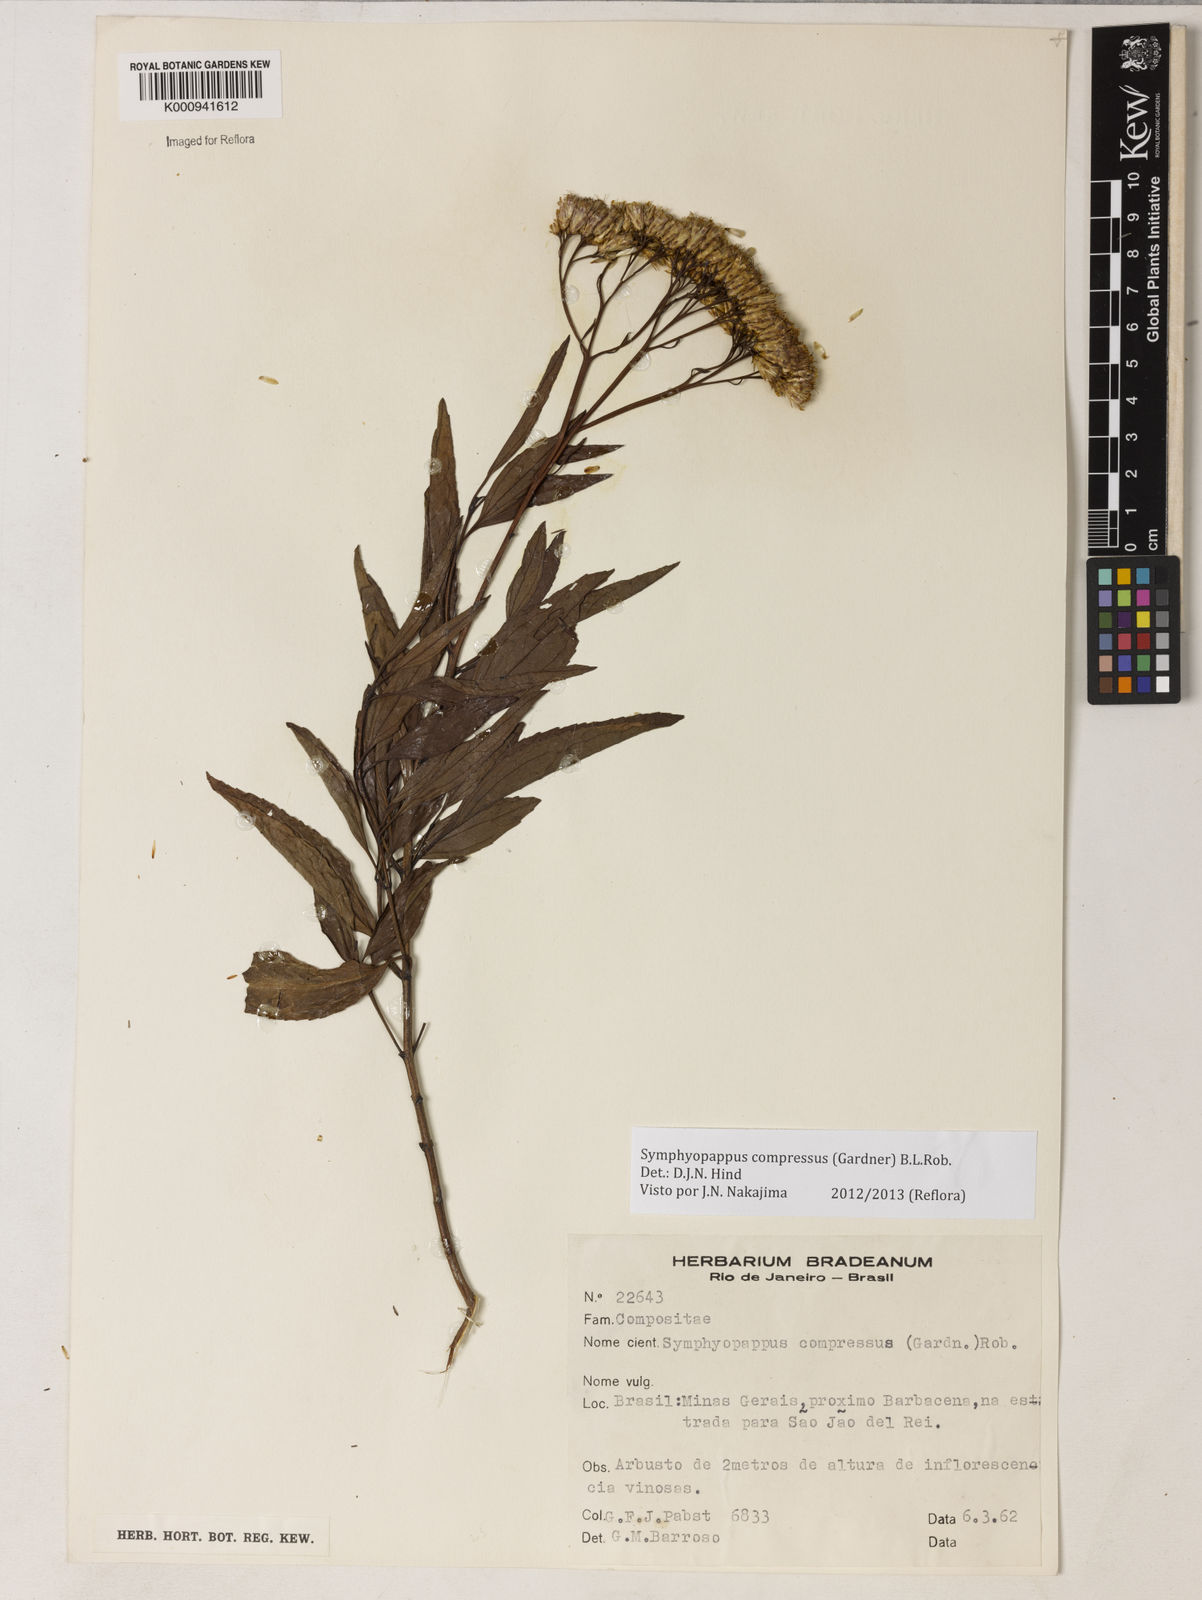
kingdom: Plantae
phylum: Tracheophyta
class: Magnoliopsida
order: Asterales
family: Asteraceae
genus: Symphyopappus
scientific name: Symphyopappus compressus
